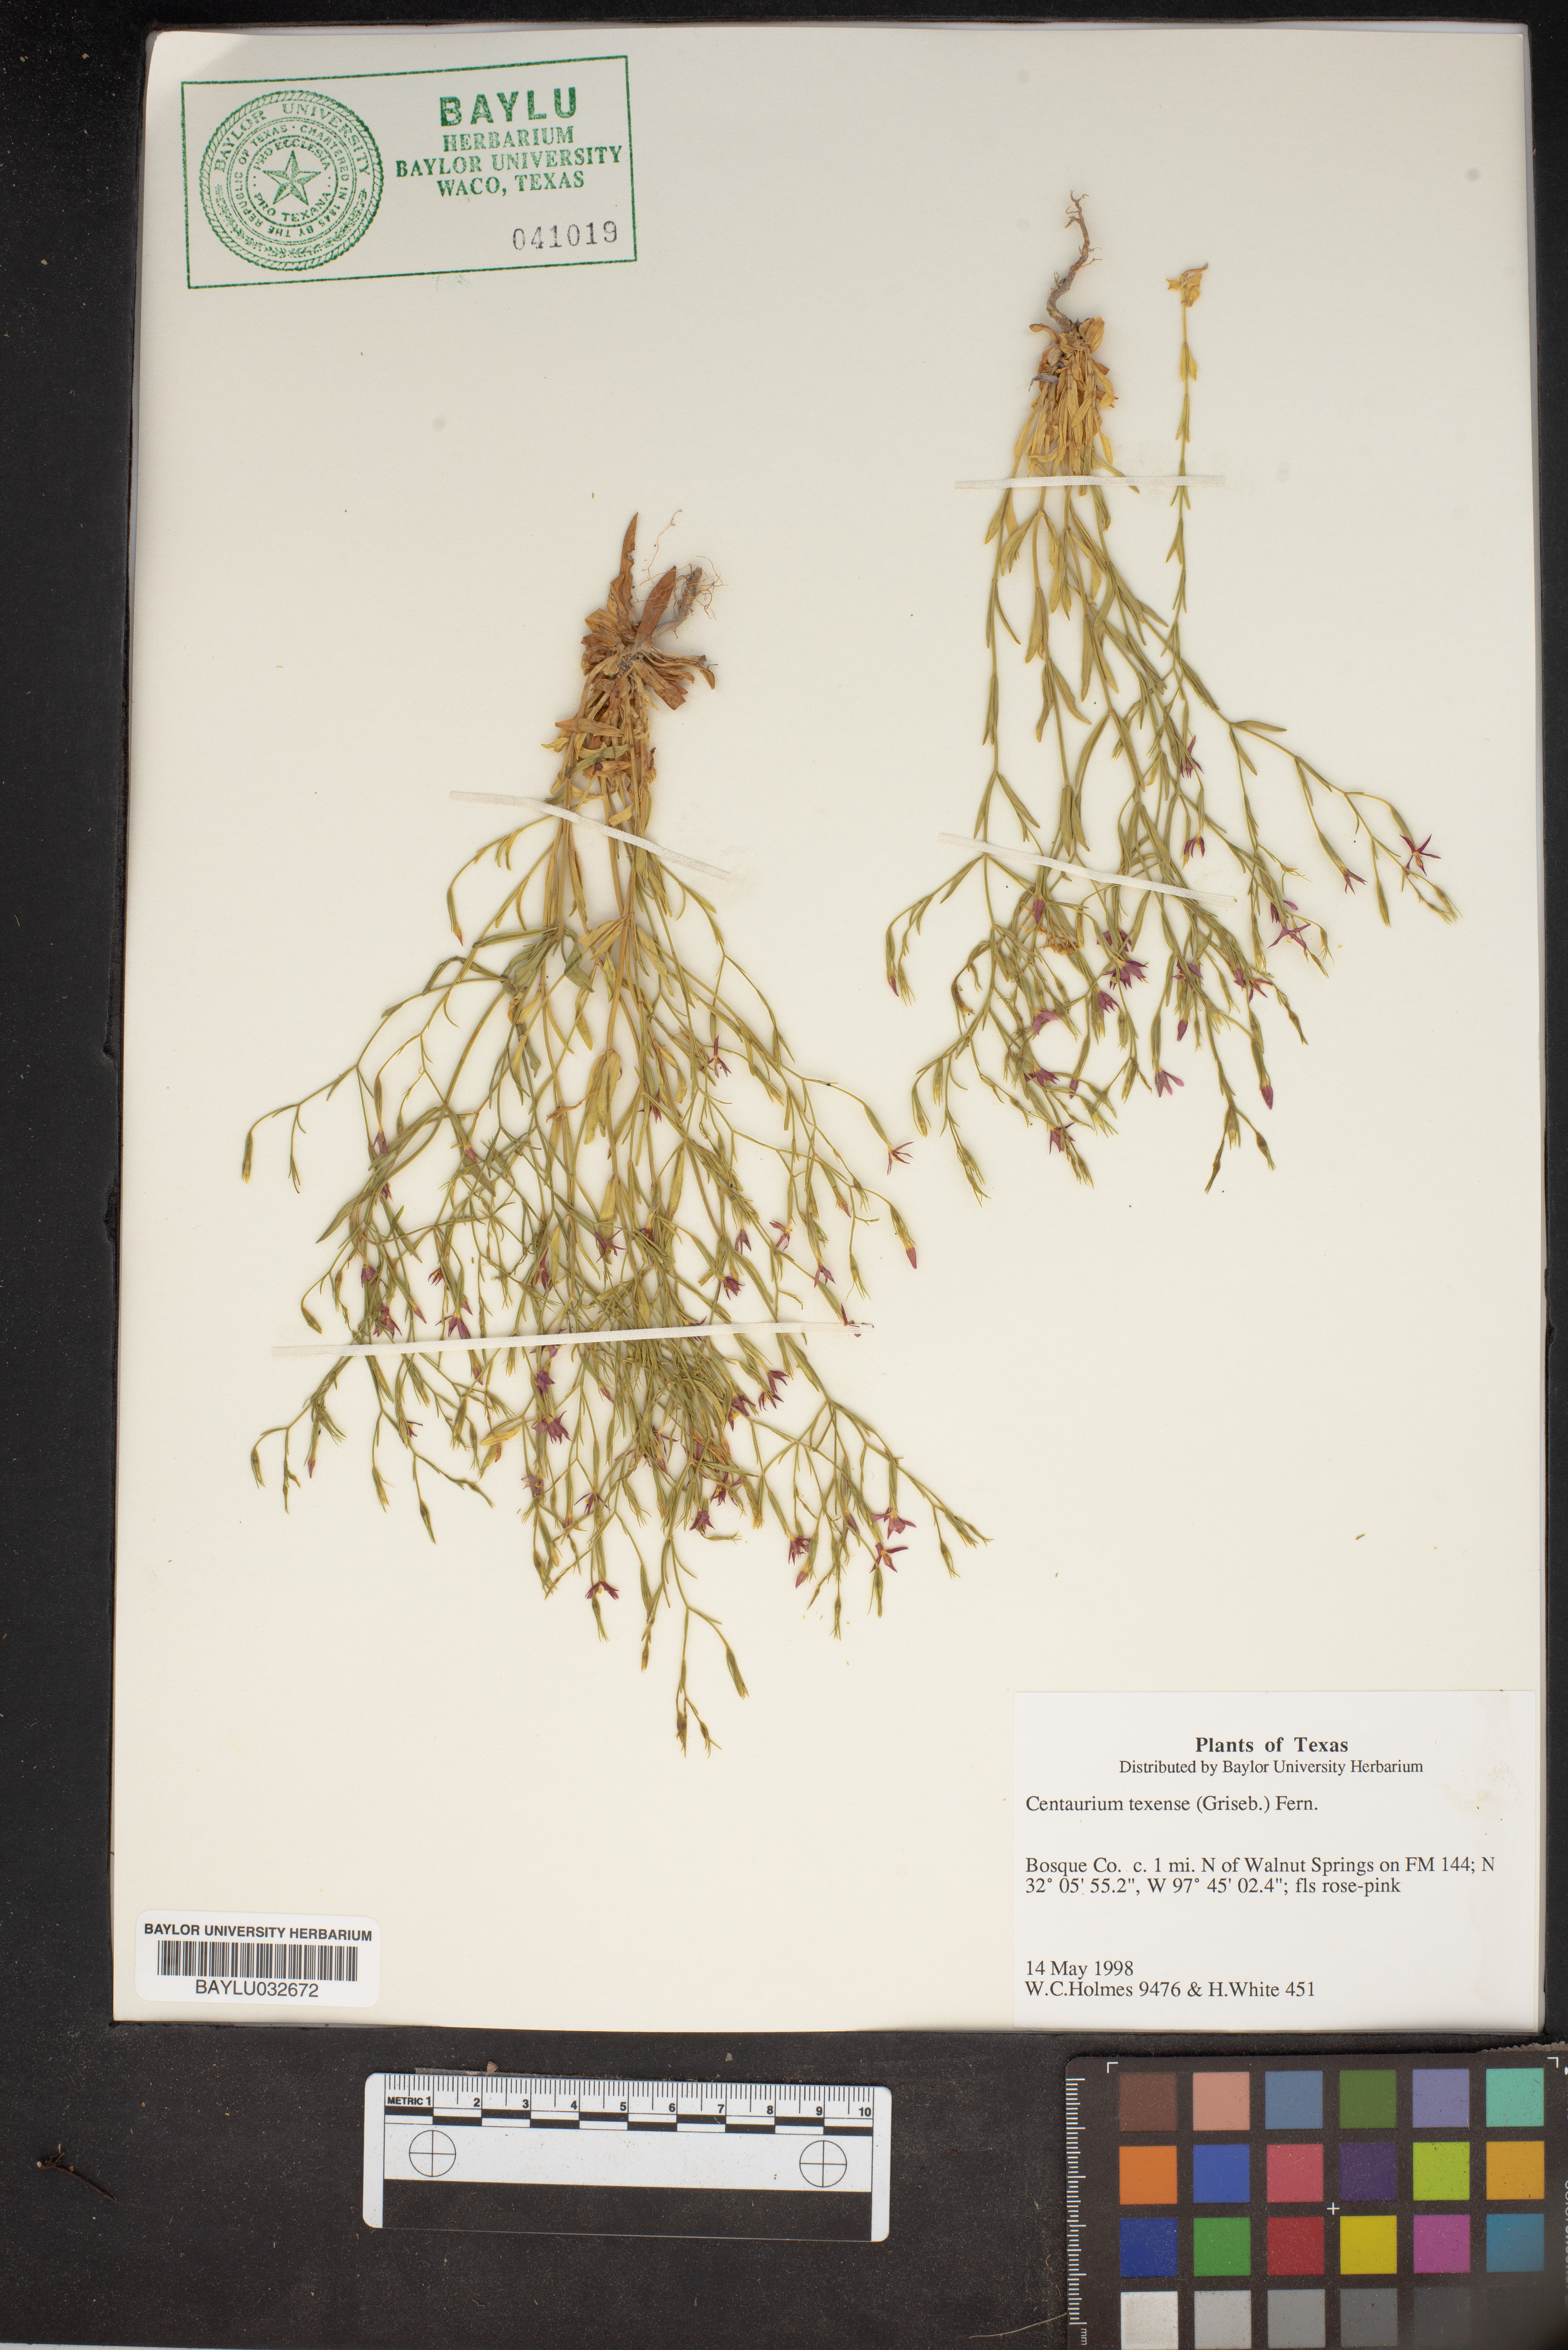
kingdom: Plantae
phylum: Tracheophyta
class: Magnoliopsida
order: Gentianales
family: Gentianaceae
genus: Zeltnera
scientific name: Zeltnera texensis
